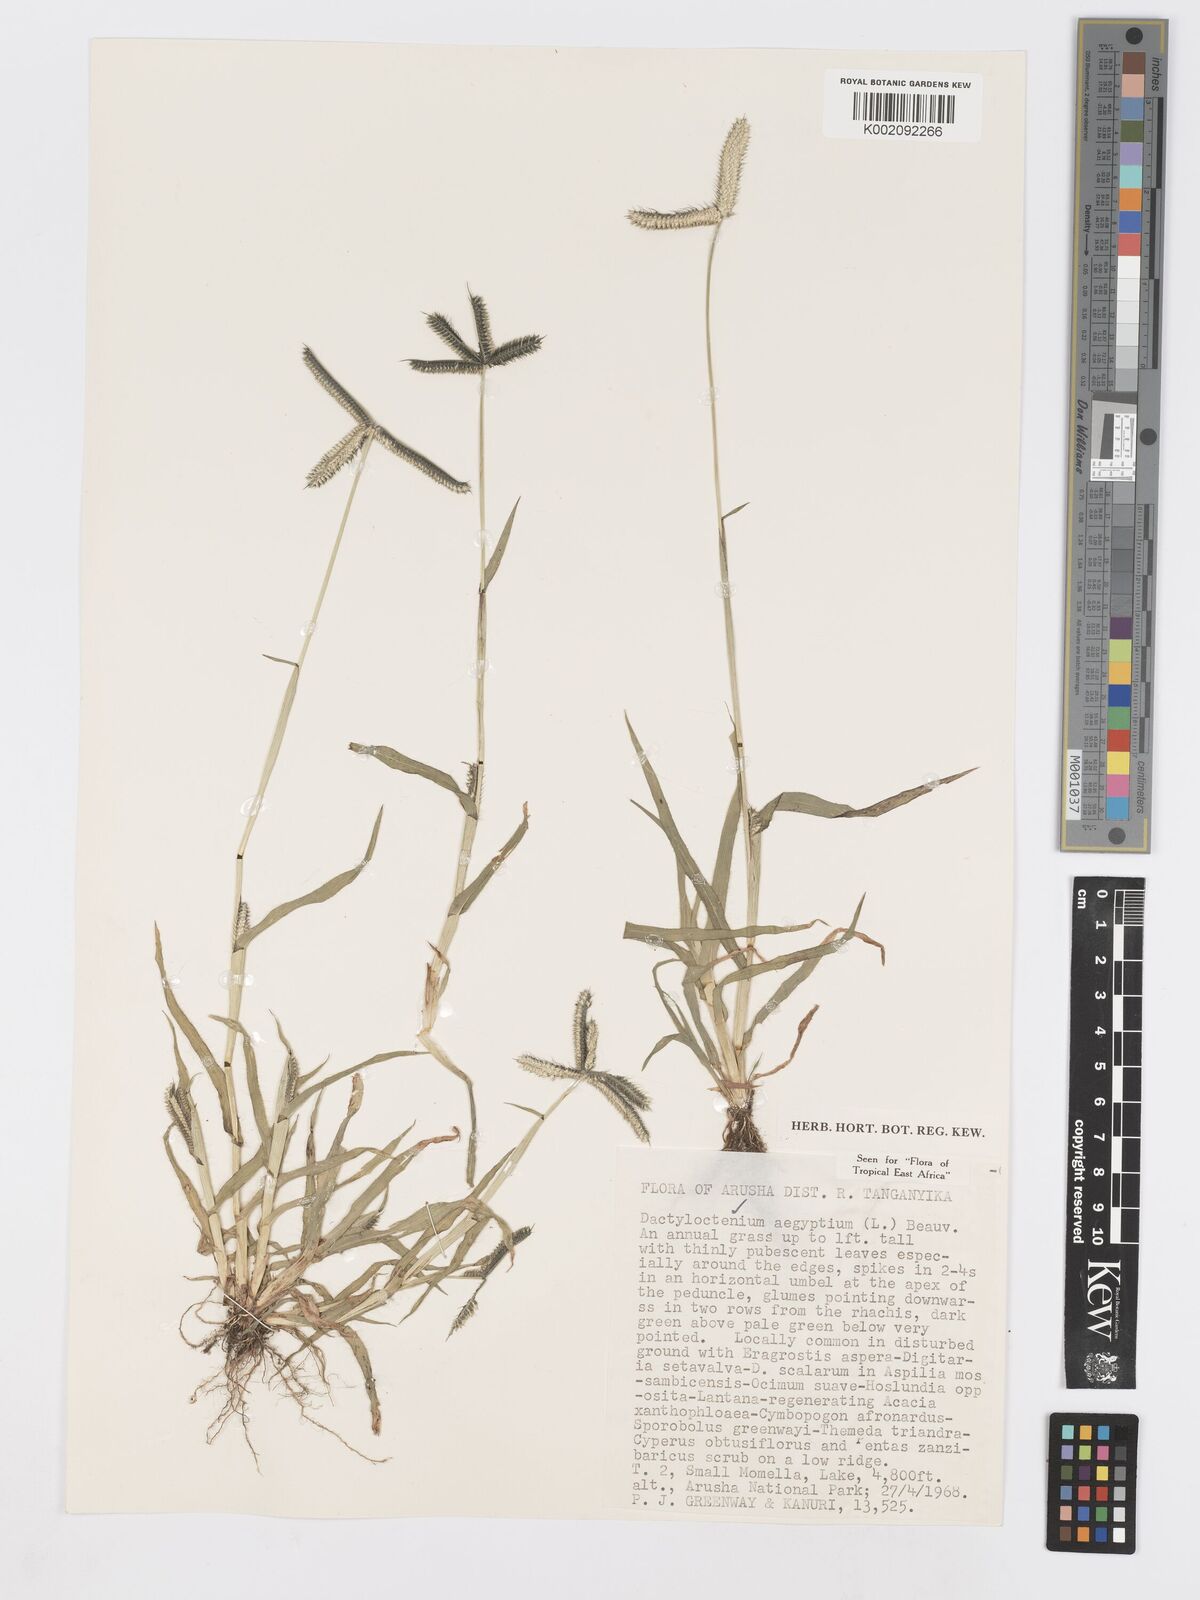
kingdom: Plantae
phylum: Tracheophyta
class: Liliopsida
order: Poales
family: Poaceae
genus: Dactyloctenium
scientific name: Dactyloctenium aegyptium
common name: Egyptian grass
